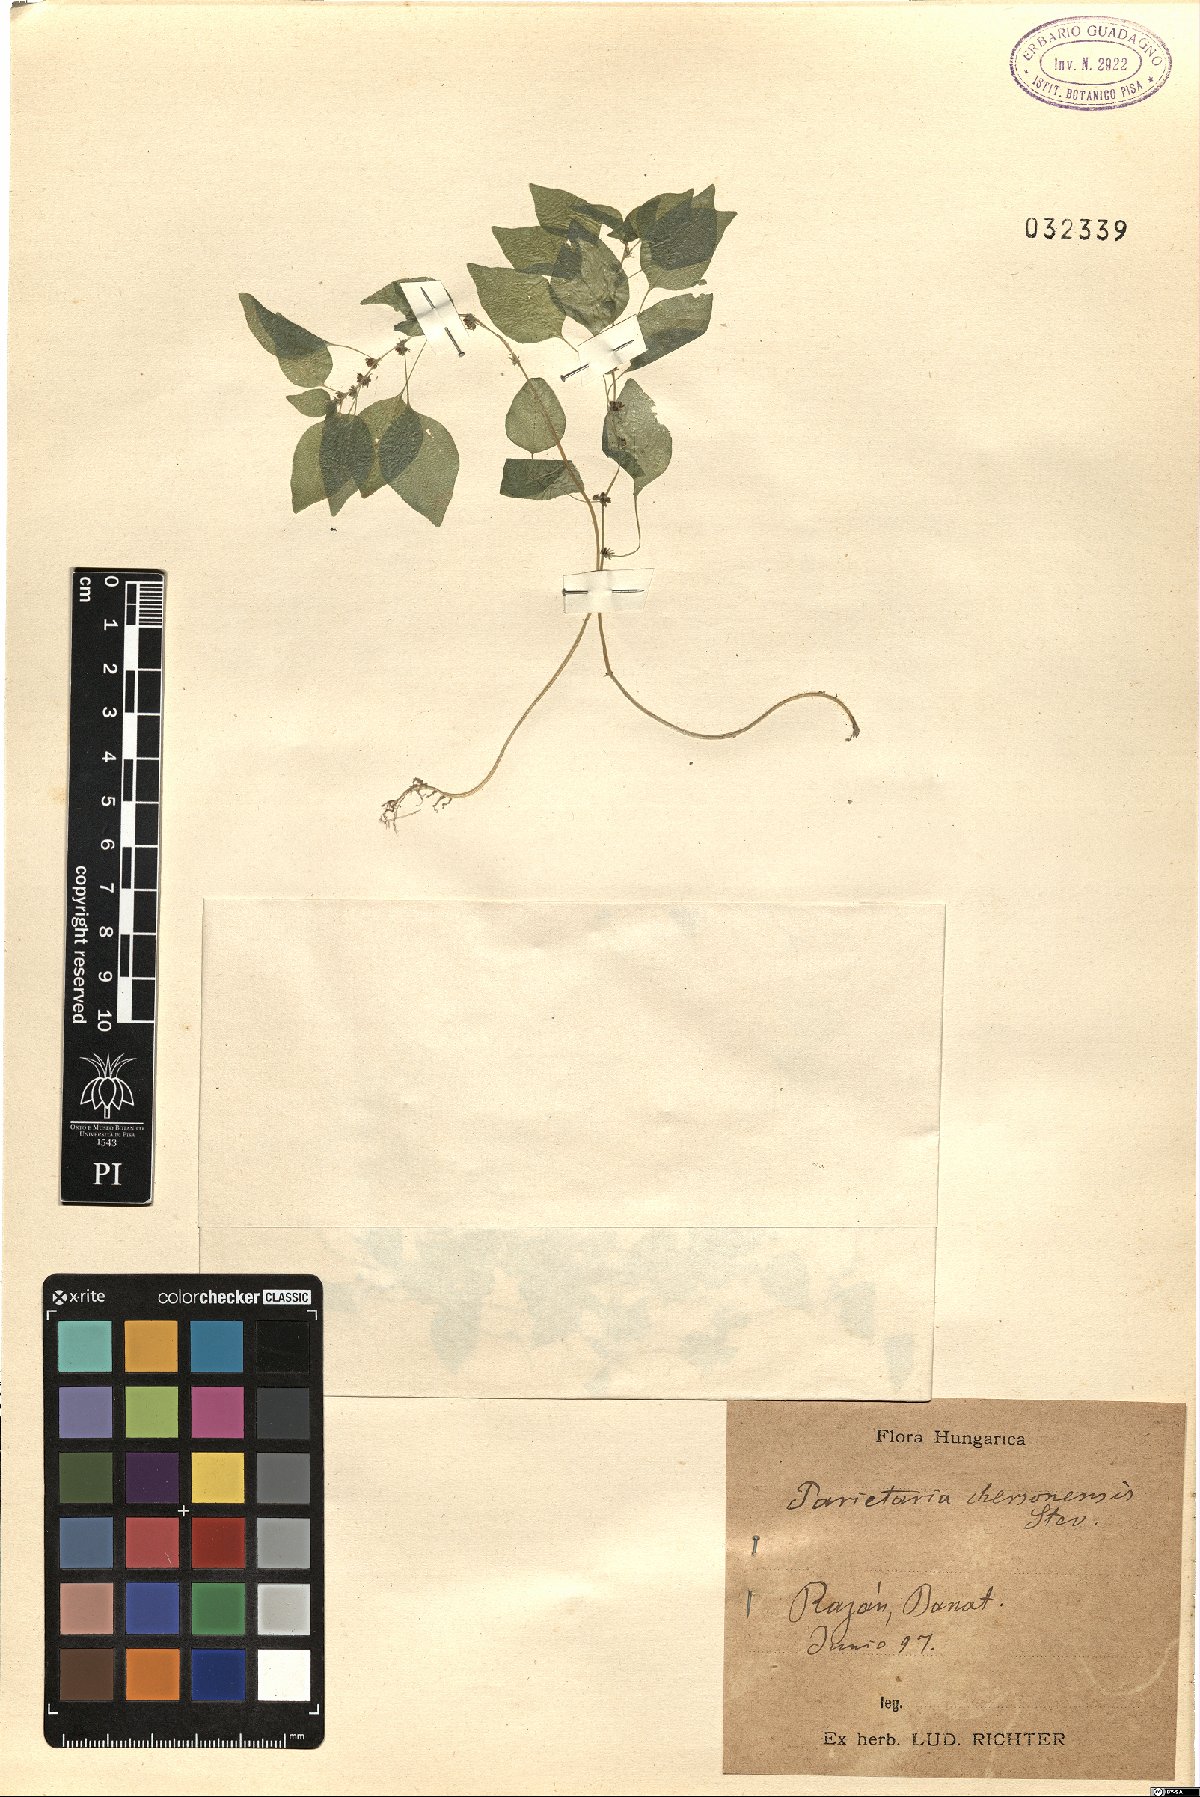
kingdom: Plantae
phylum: Tracheophyta
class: Magnoliopsida
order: Rosales
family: Urticaceae
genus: Parietaria
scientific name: Parietaria lusitanica
